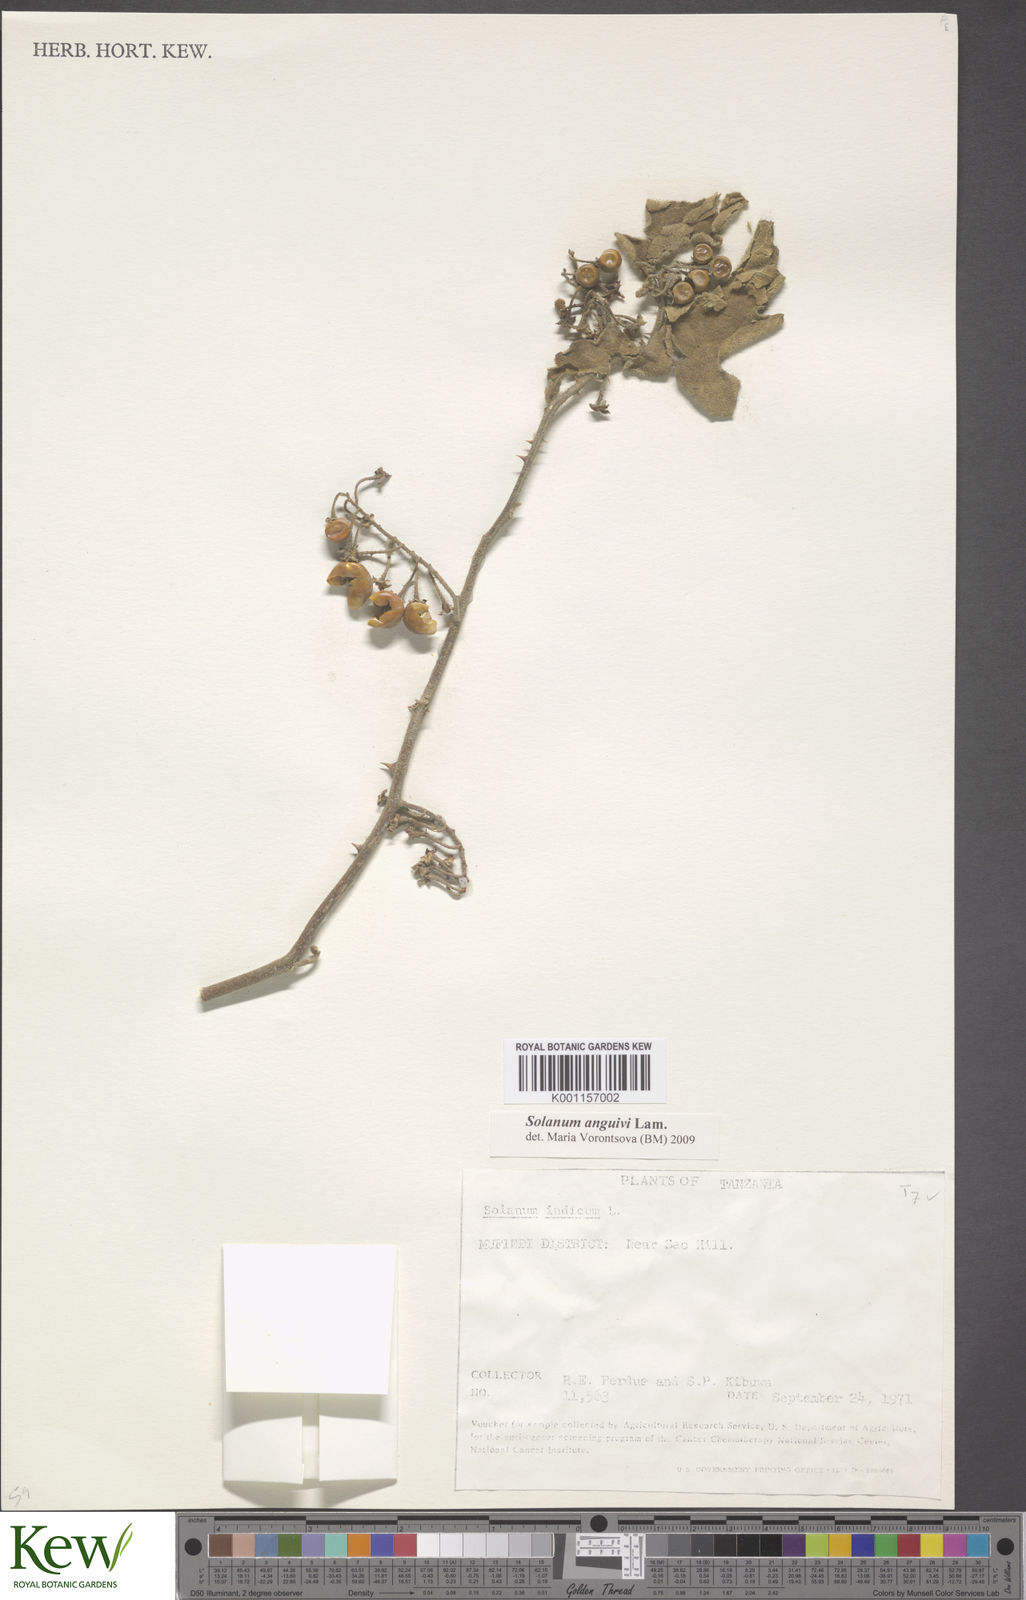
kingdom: Plantae
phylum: Tracheophyta
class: Magnoliopsida
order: Solanales
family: Solanaceae
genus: Solanum
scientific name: Solanum anguivi
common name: Forest bitterberry
